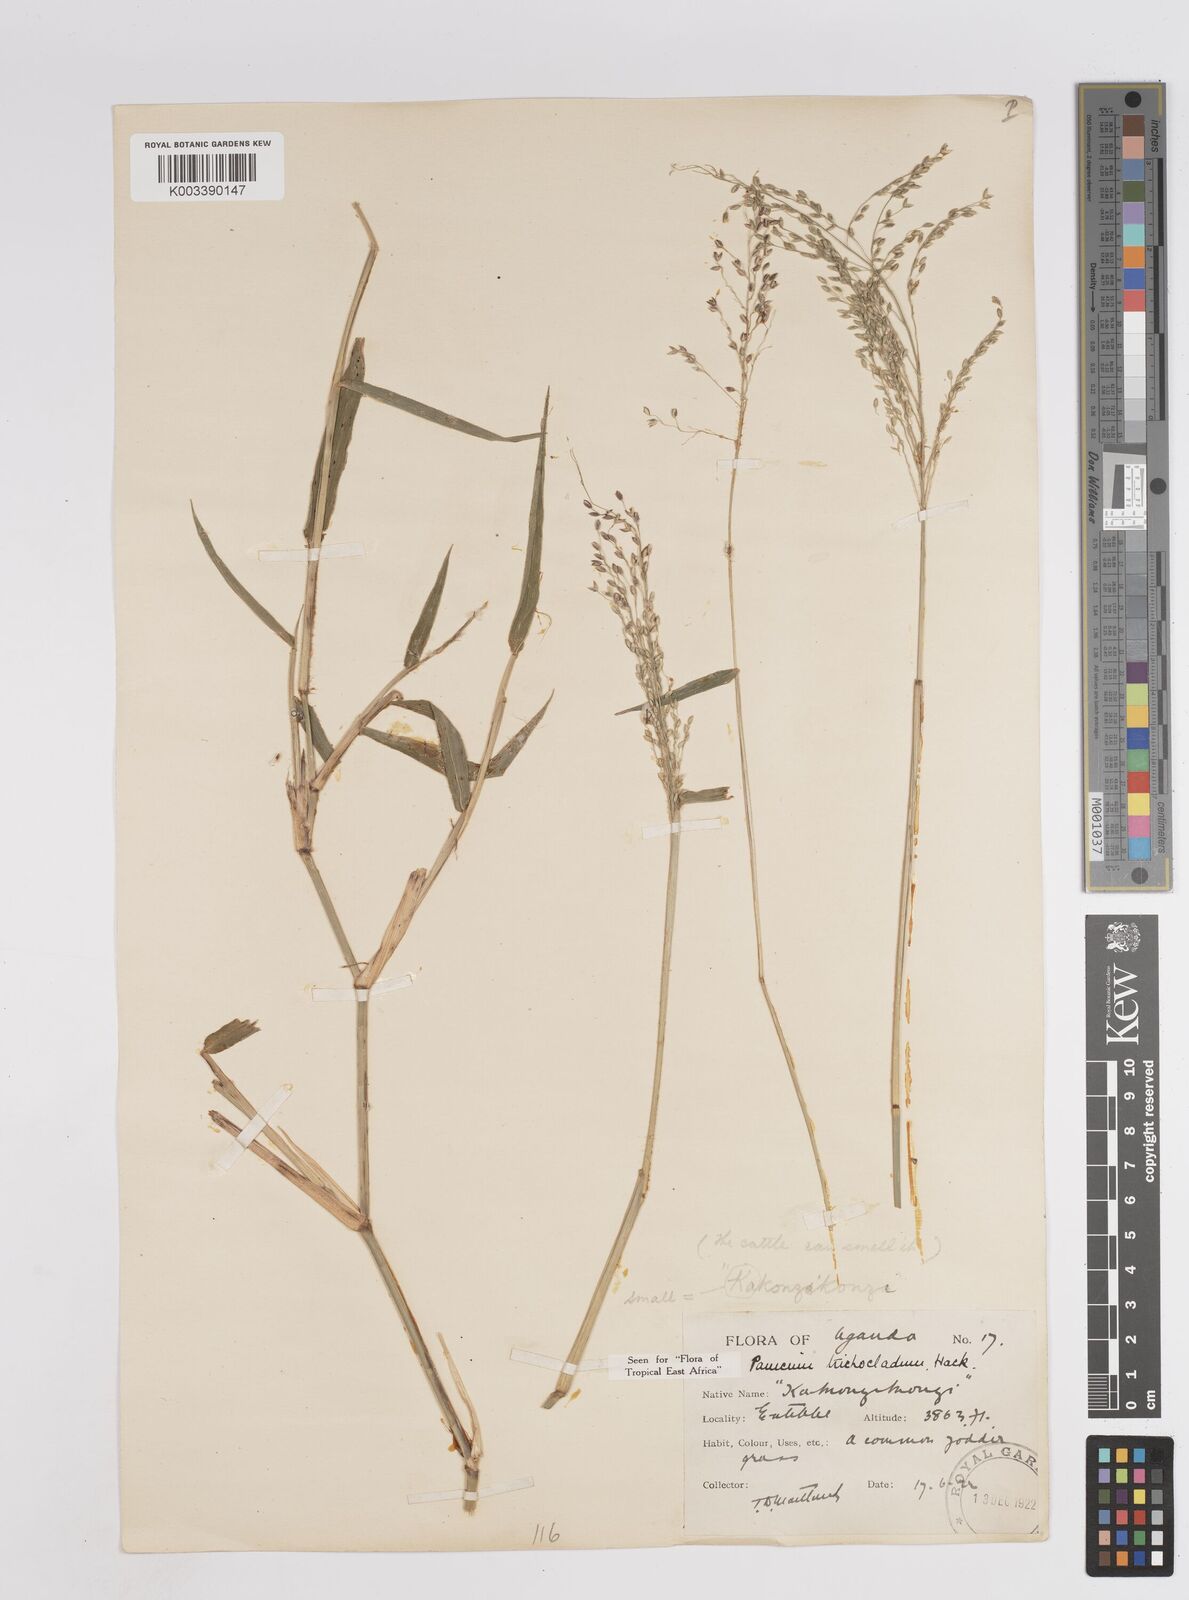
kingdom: Plantae
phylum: Tracheophyta
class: Liliopsida
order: Poales
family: Poaceae
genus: Megathyrsus
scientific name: Megathyrsus maximus
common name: Guineagrass
